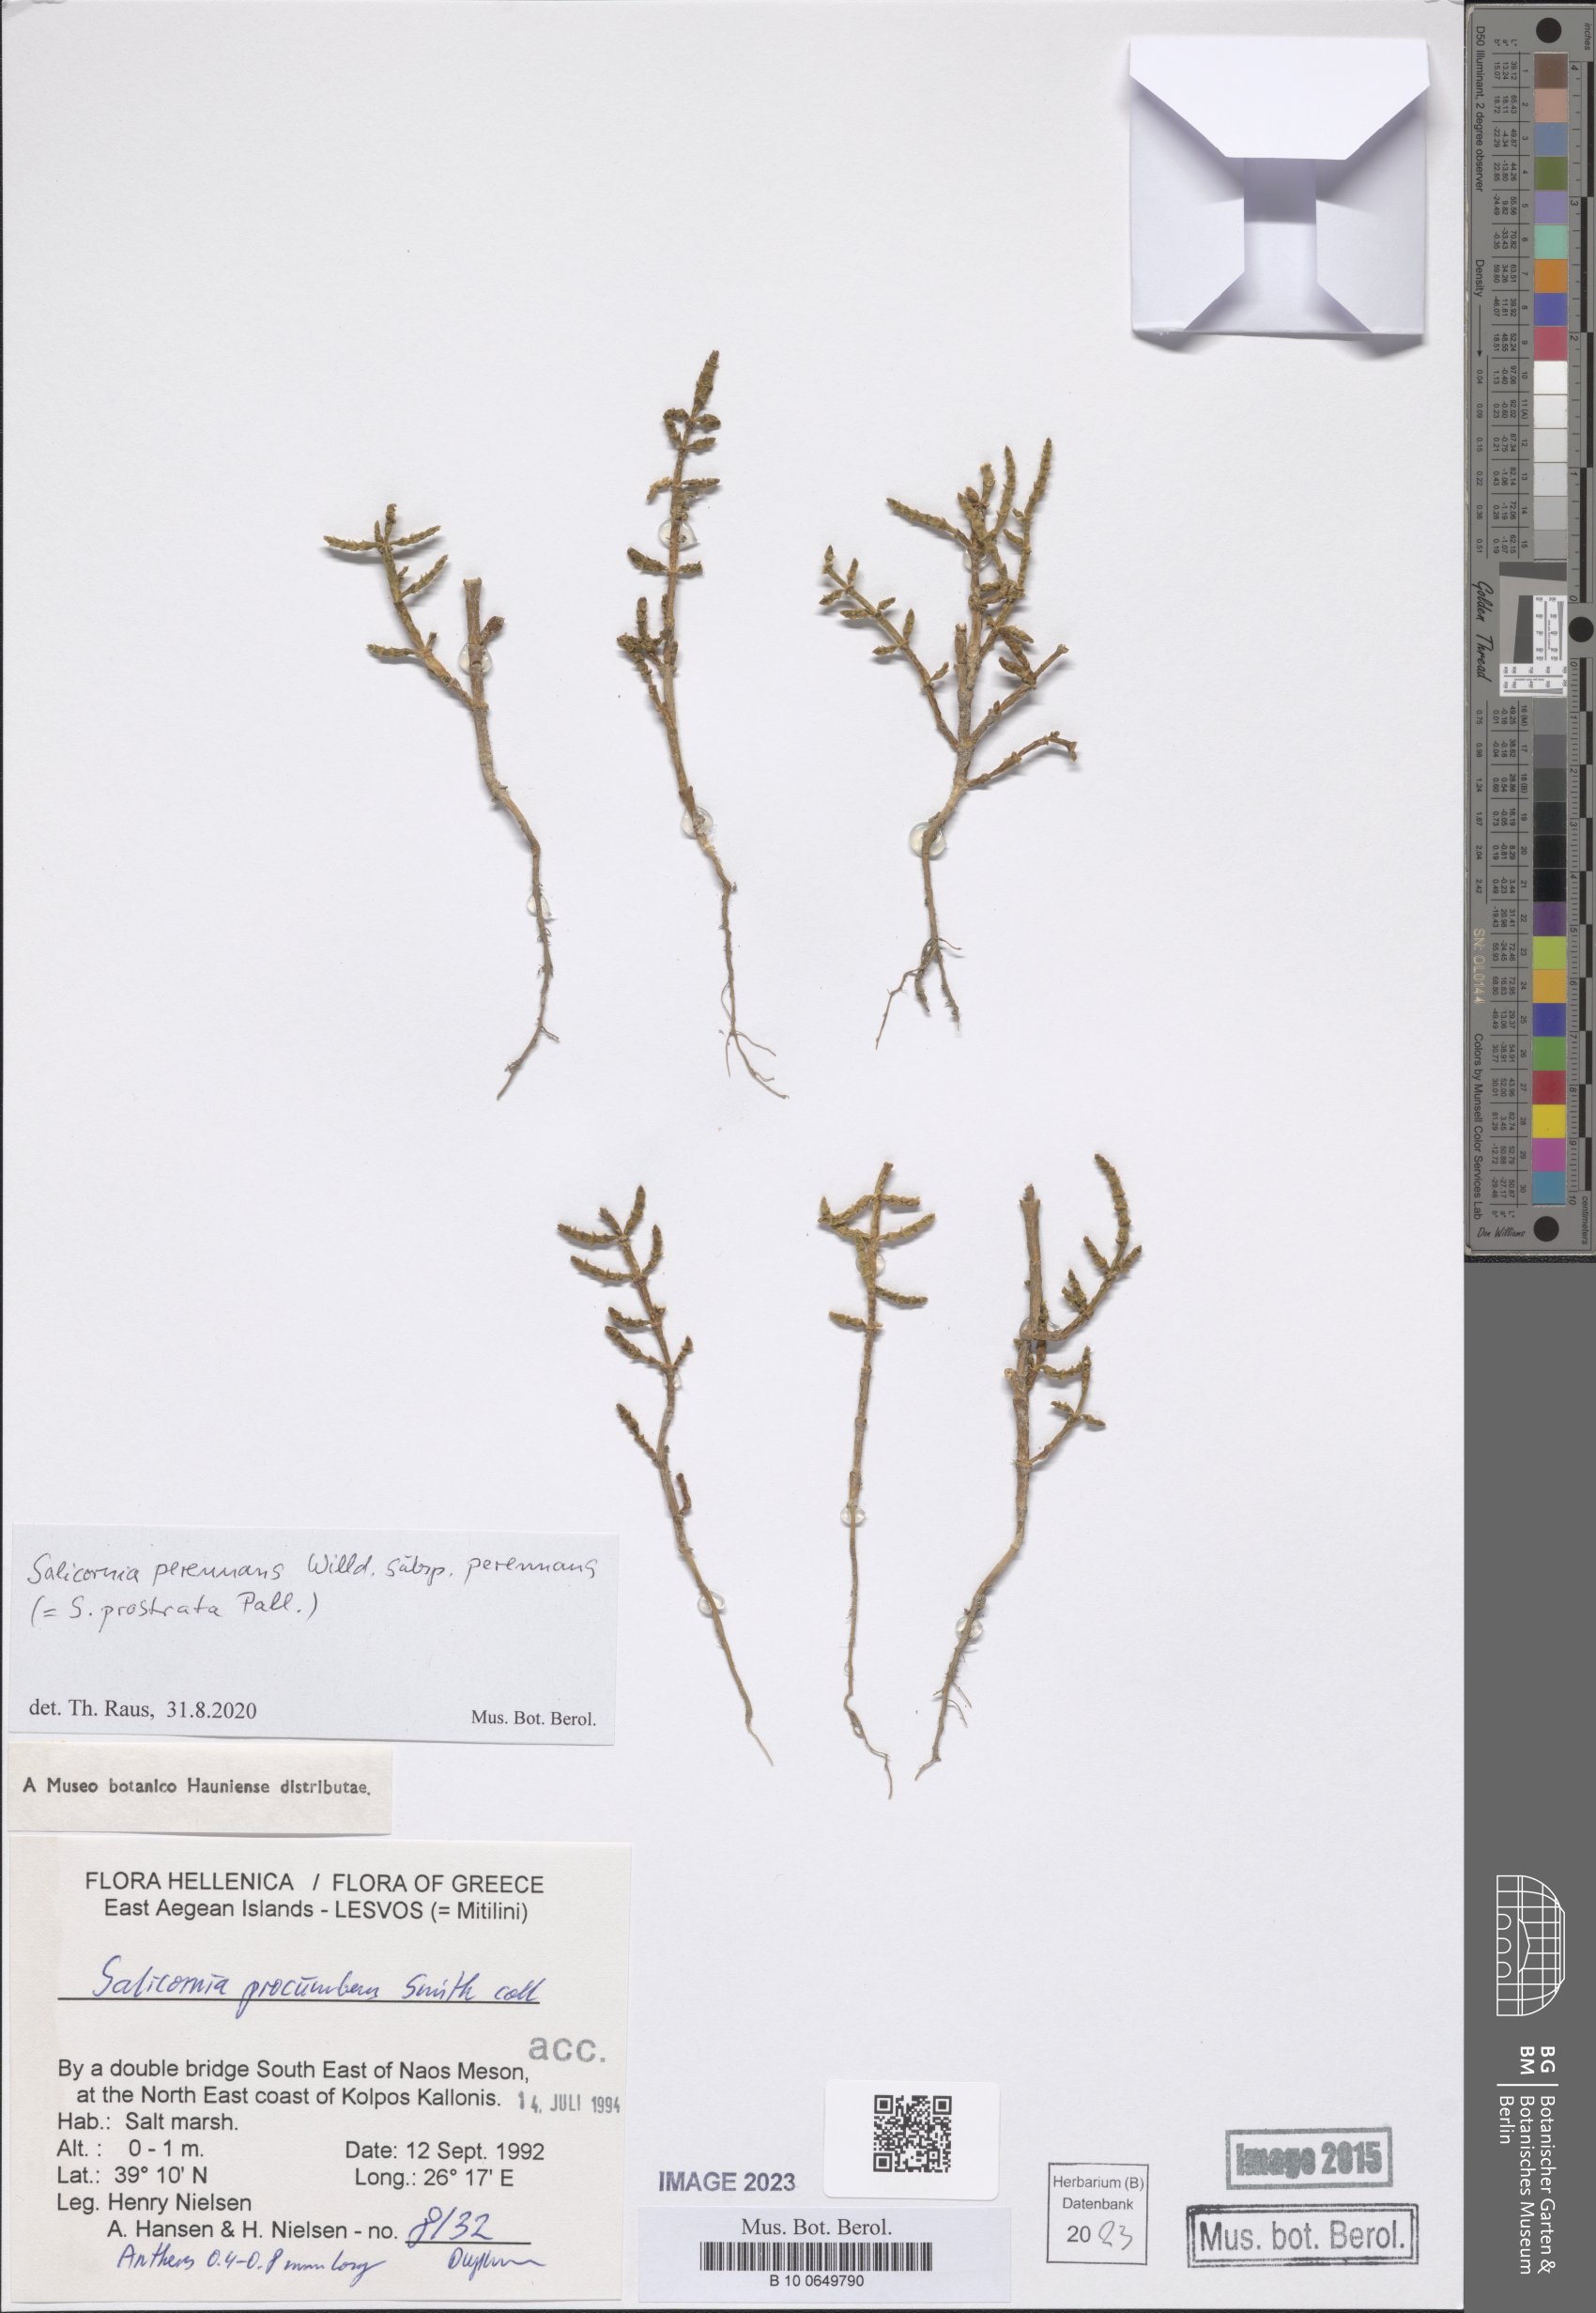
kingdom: Plantae
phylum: Tracheophyta
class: Magnoliopsida
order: Caryophyllales
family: Amaranthaceae
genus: Salicornia
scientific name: Salicornia perennans
